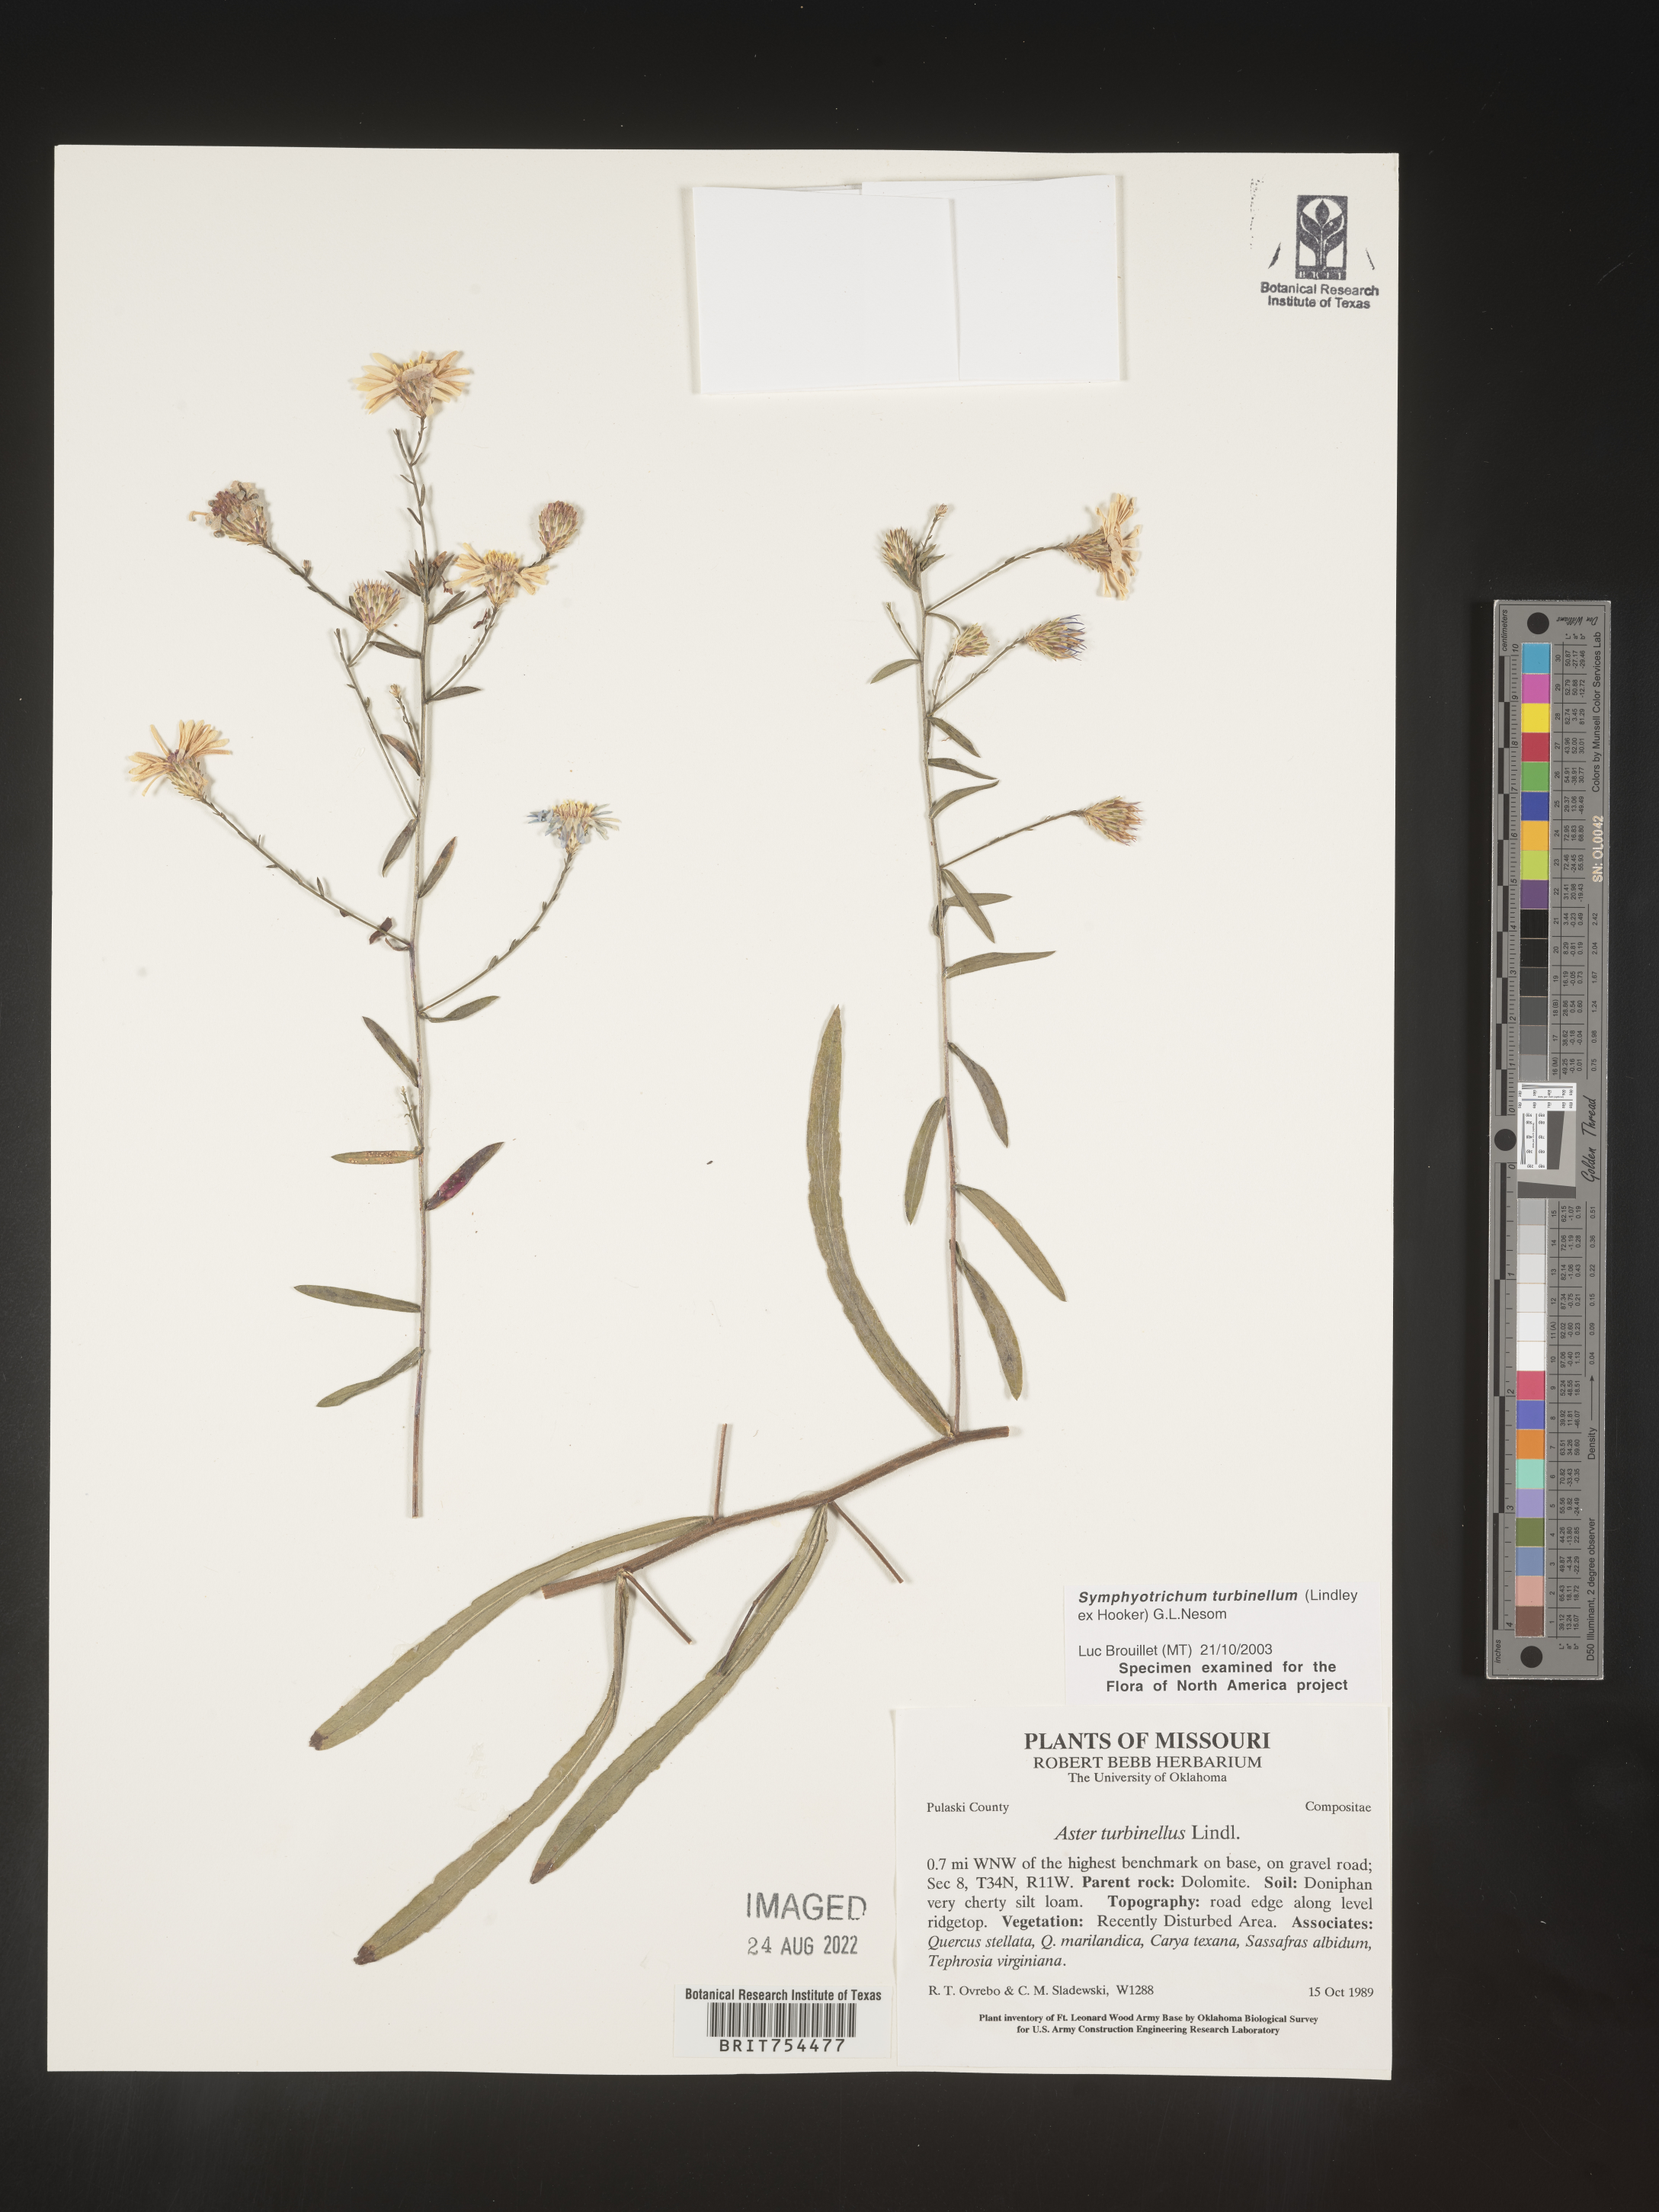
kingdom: Plantae
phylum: Tracheophyta
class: Magnoliopsida
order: Asterales
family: Asteraceae
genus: Symphyotrichum
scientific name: Symphyotrichum turbinellum
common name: Prairie aster
